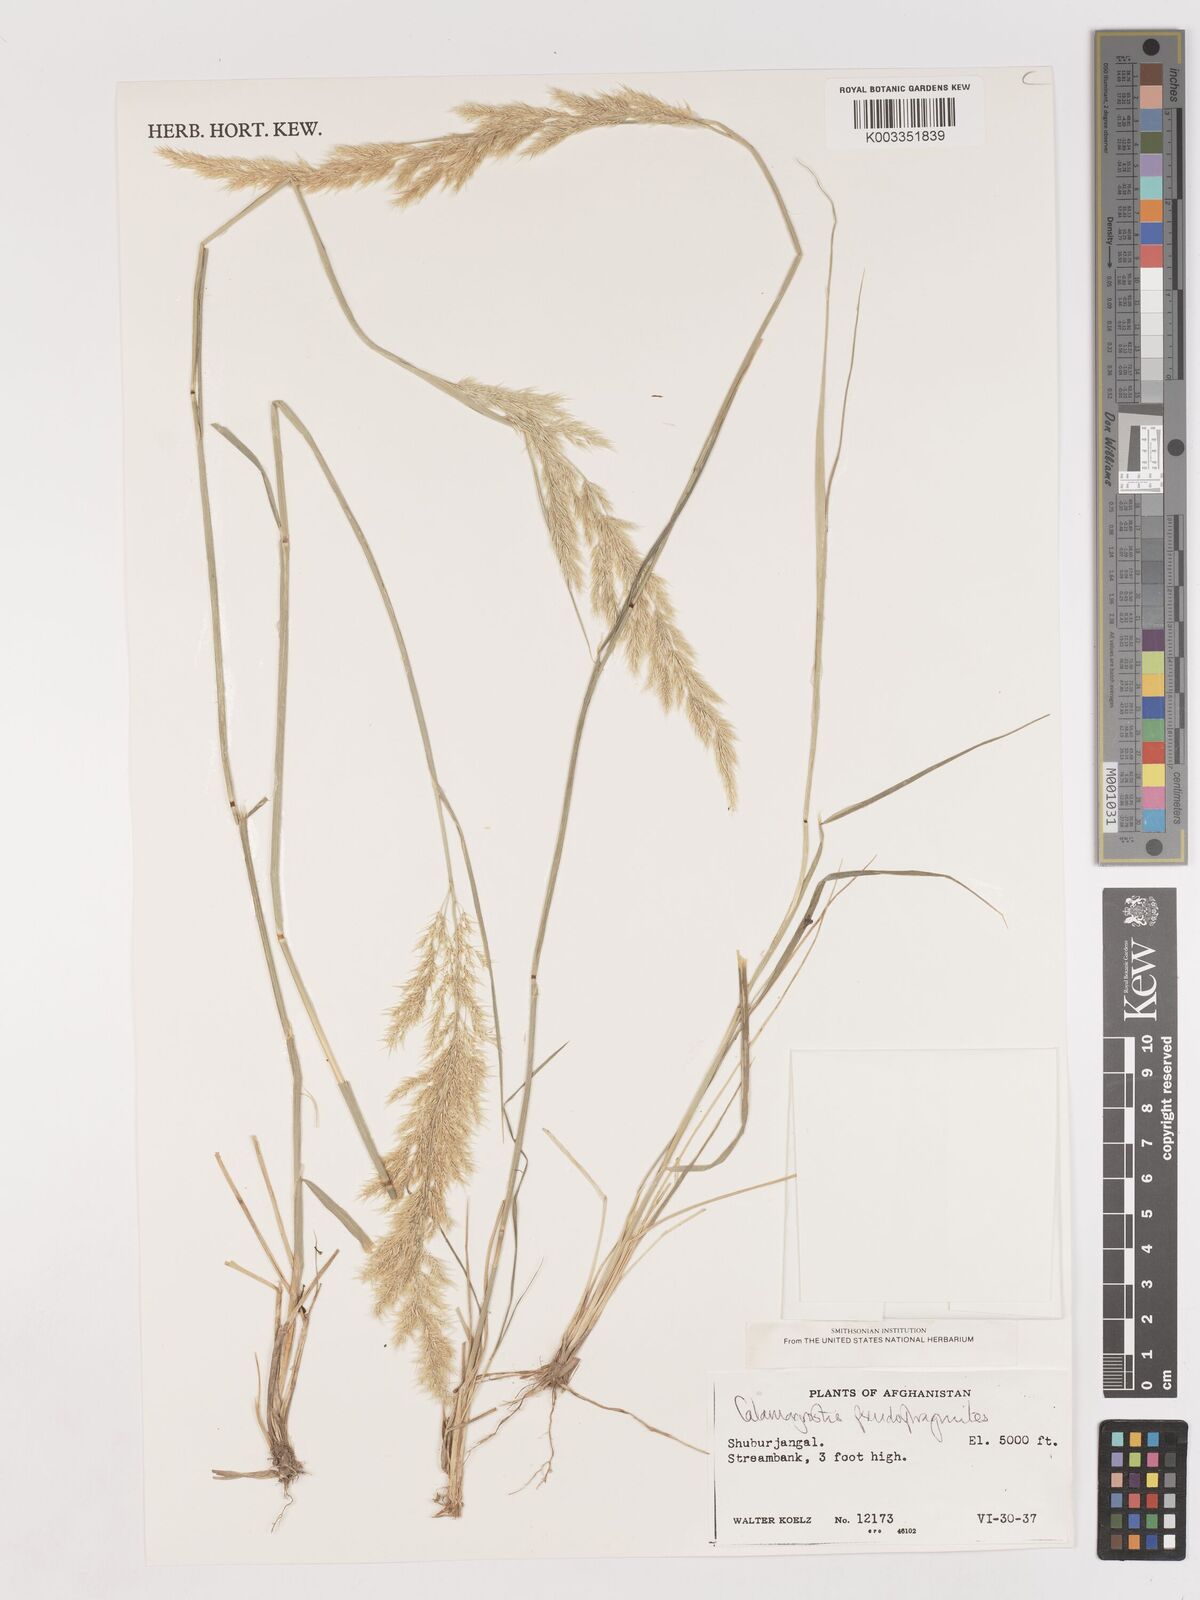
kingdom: Plantae
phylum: Tracheophyta
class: Liliopsida
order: Poales
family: Poaceae
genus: Calamagrostis
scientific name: Calamagrostis purpurea
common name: Scandinavian small-reed
